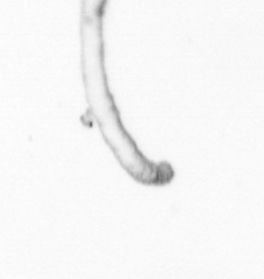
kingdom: Chromista
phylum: Ochrophyta
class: Bacillariophyceae
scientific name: Bacillariophyceae
